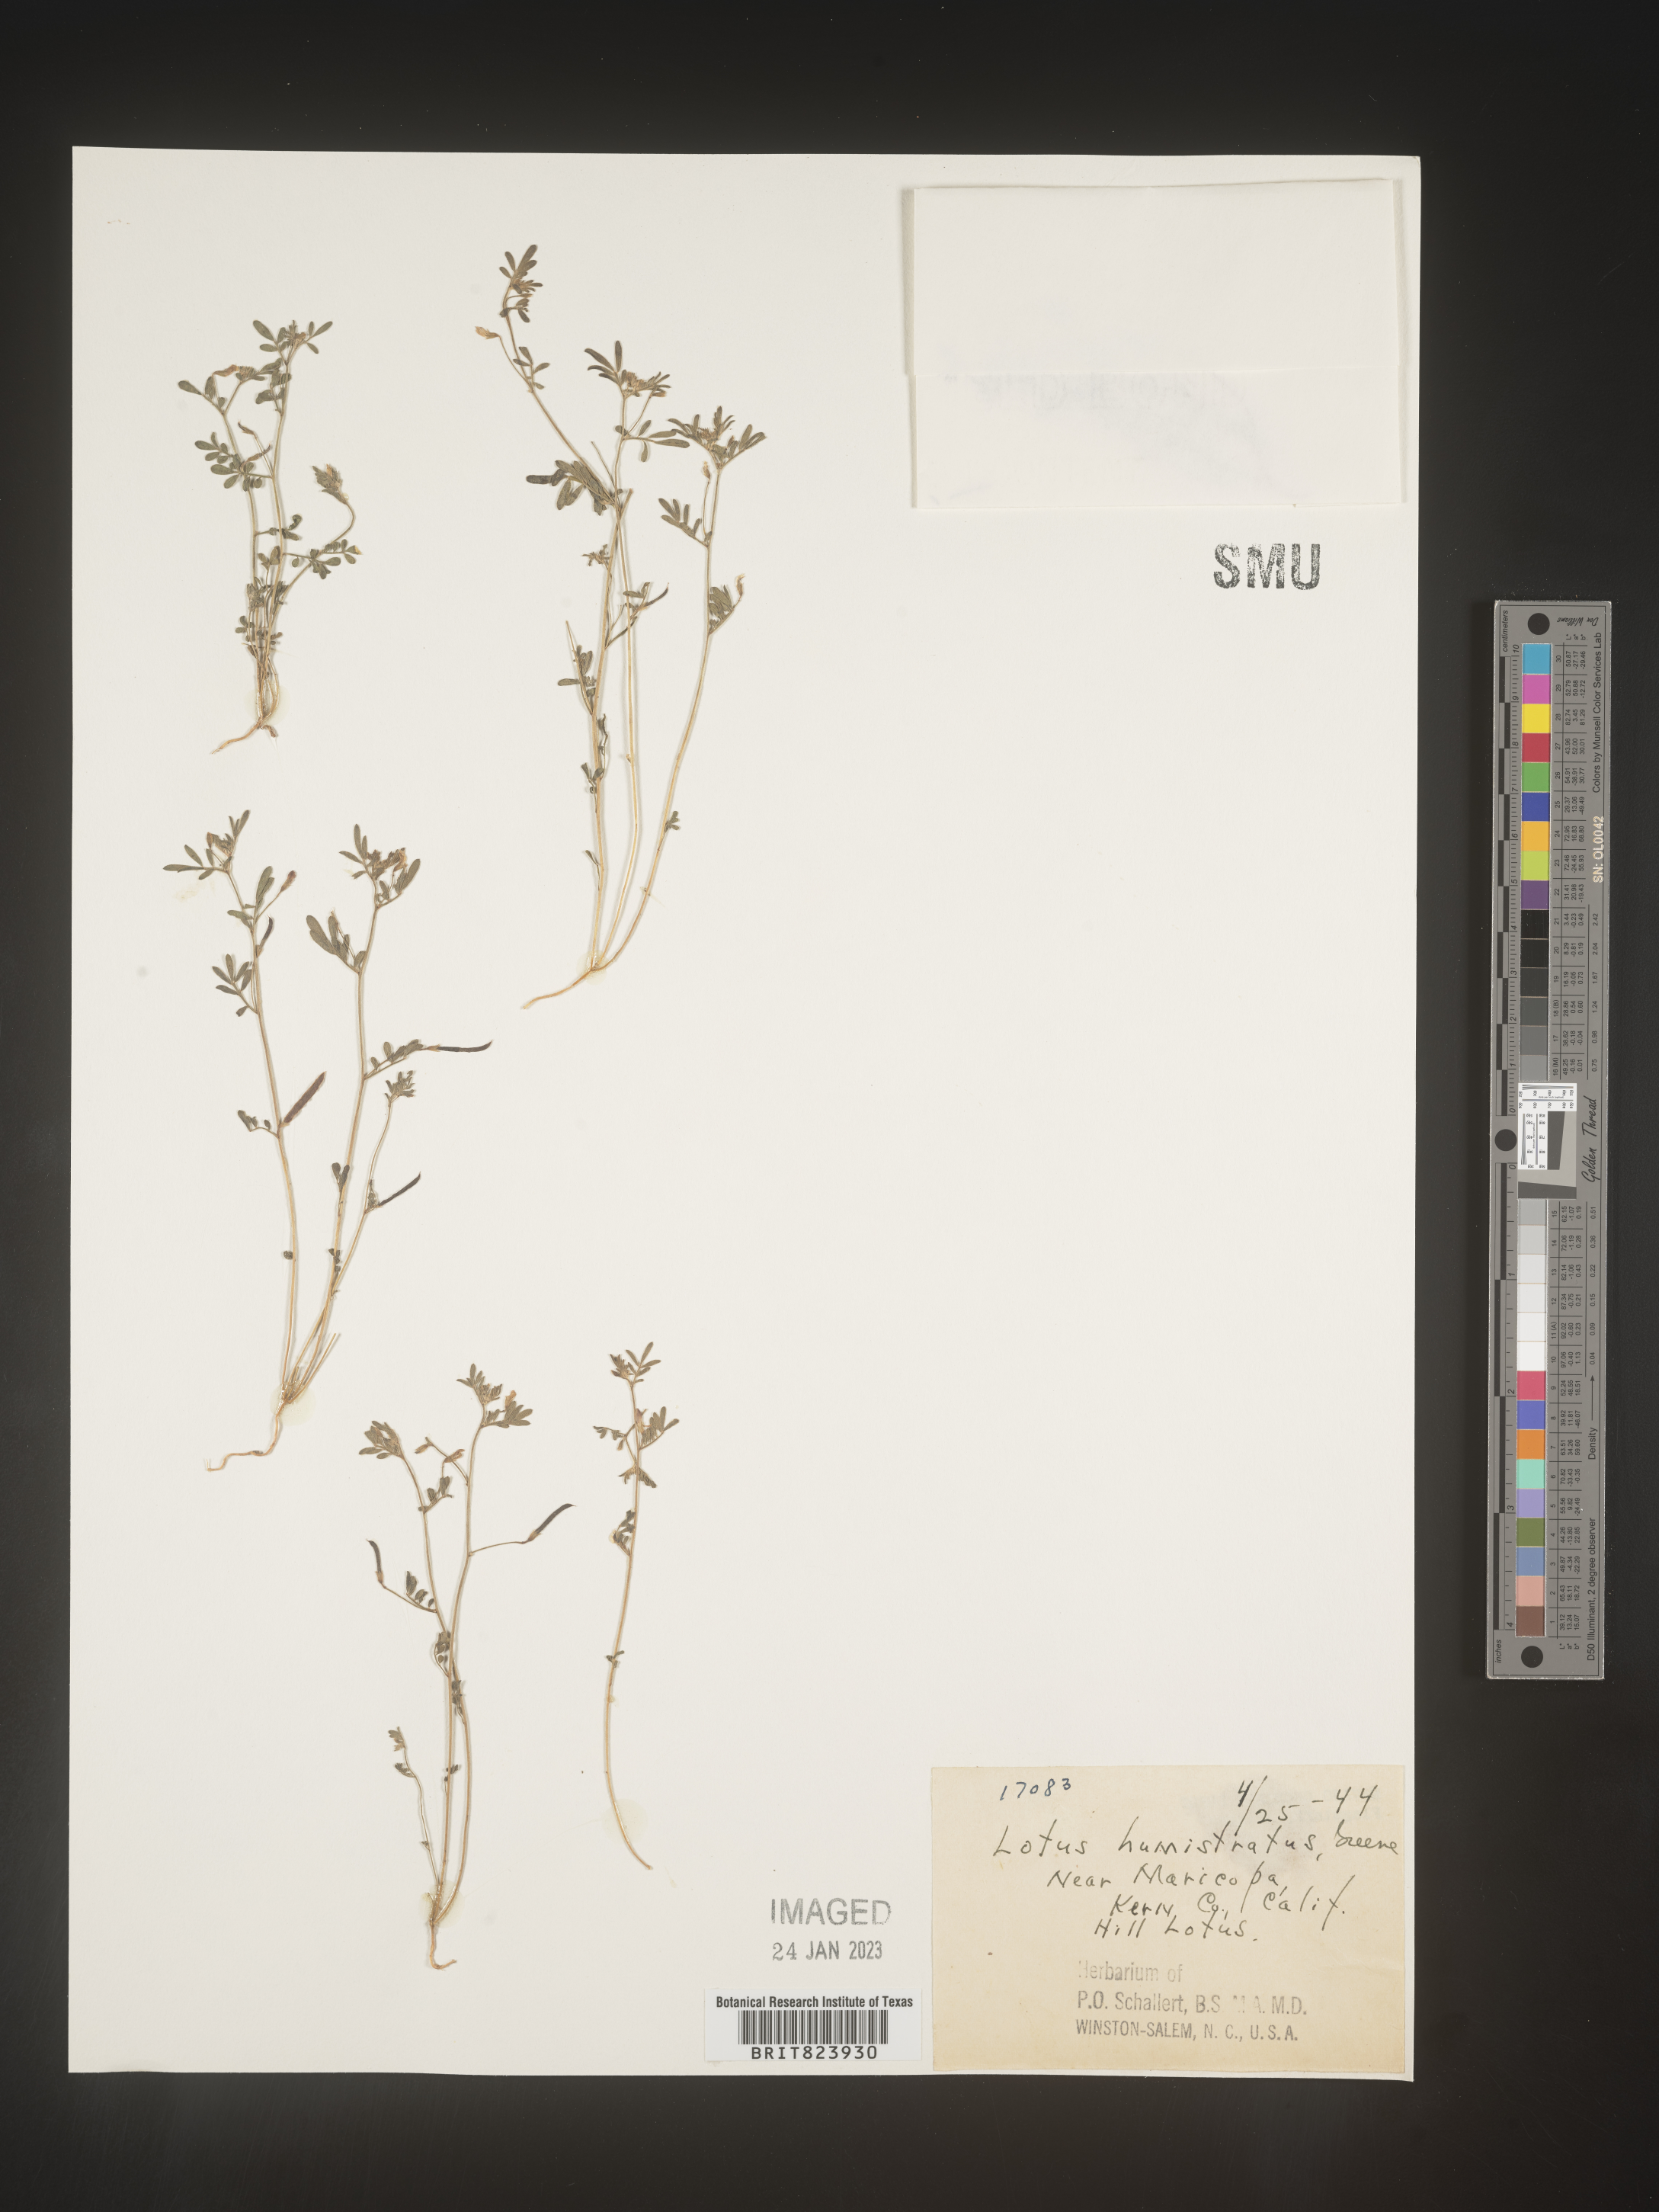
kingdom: Plantae
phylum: Tracheophyta
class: Magnoliopsida
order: Fabales
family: Fabaceae
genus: Acmispon
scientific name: Acmispon brachycarpus
